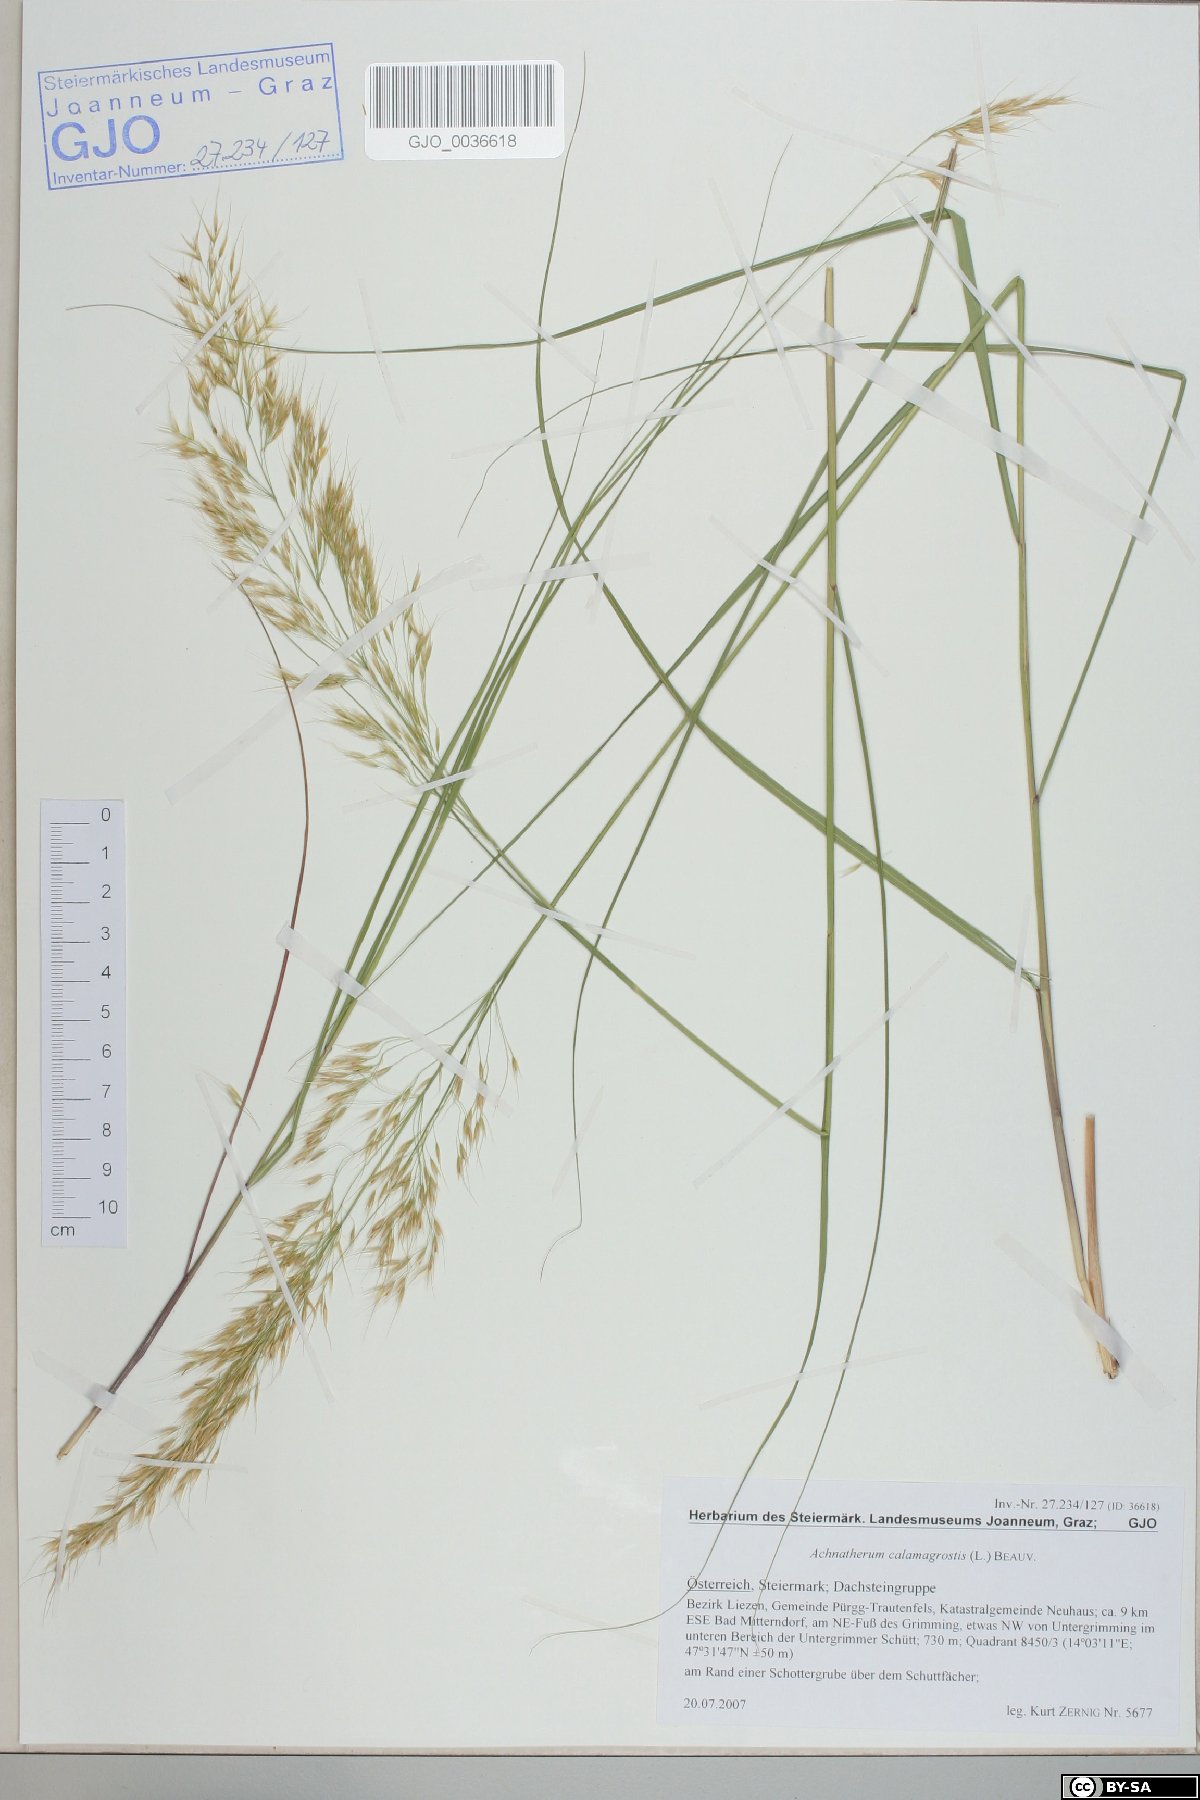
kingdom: Plantae
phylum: Tracheophyta
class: Liliopsida
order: Poales
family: Poaceae
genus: Achnatherum
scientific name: Achnatherum calamagrostis
